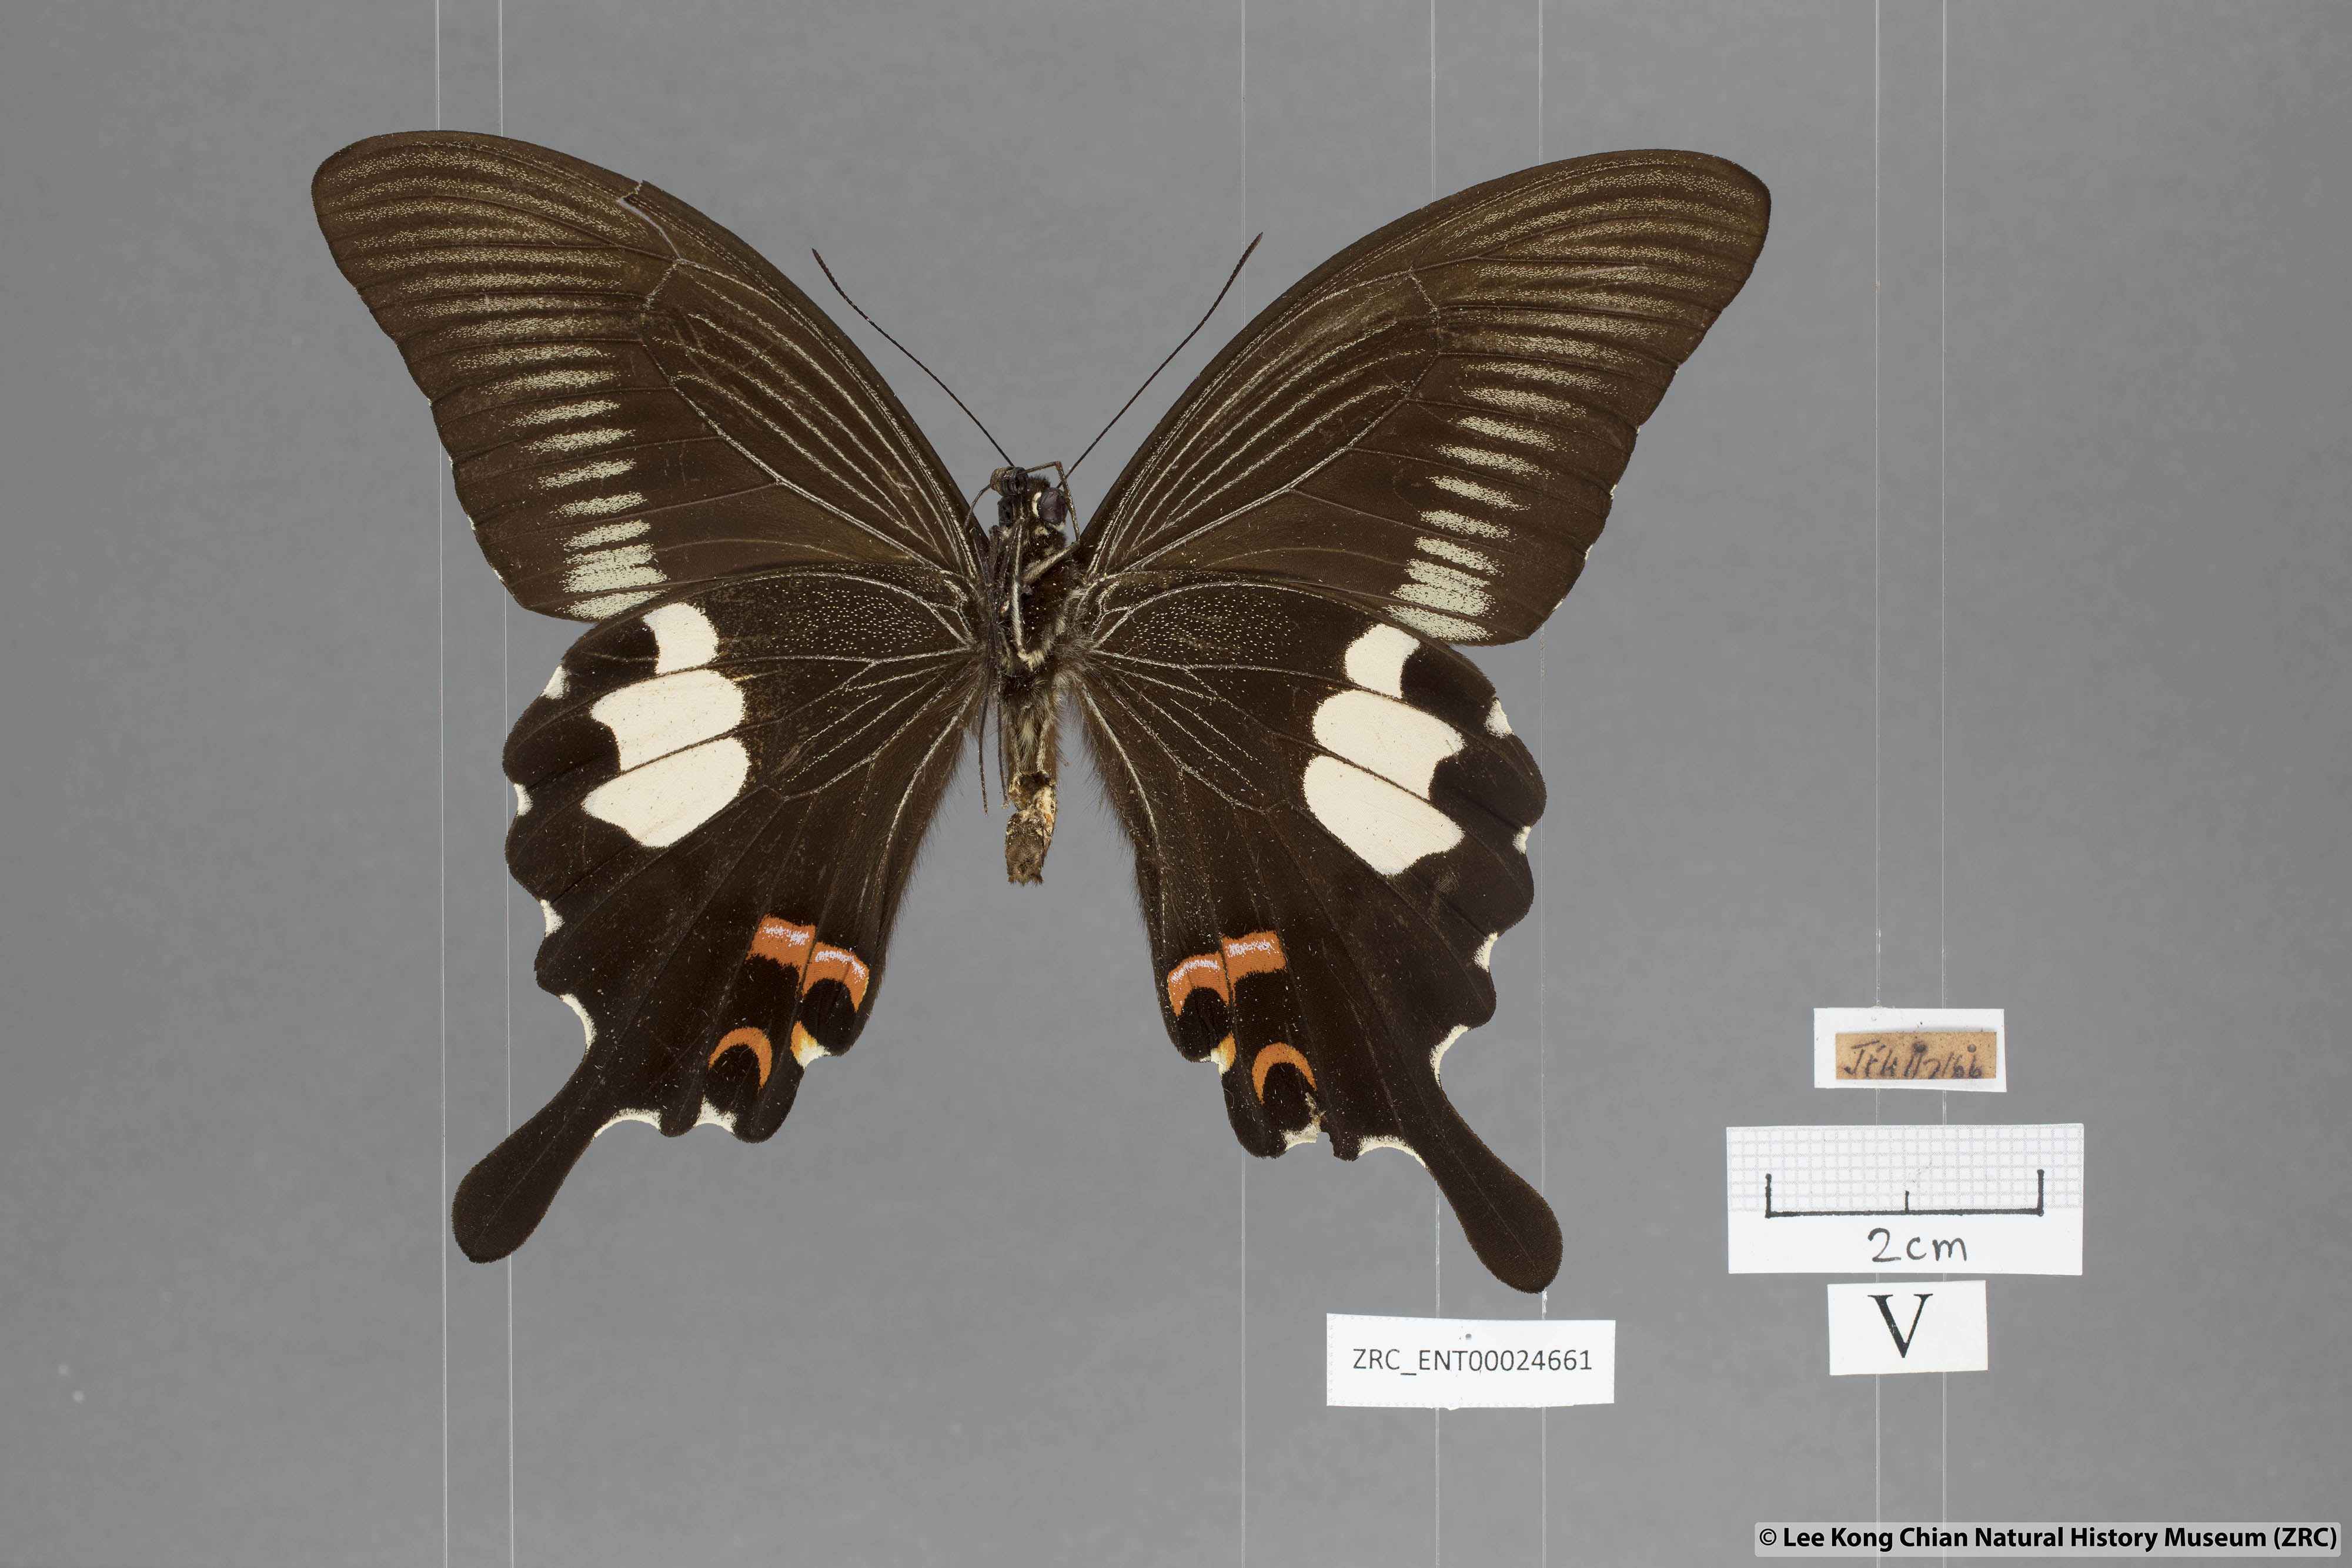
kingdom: Animalia
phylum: Arthropoda
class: Insecta
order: Lepidoptera
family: Papilionidae
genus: Papilio
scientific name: Papilio iswaroides
